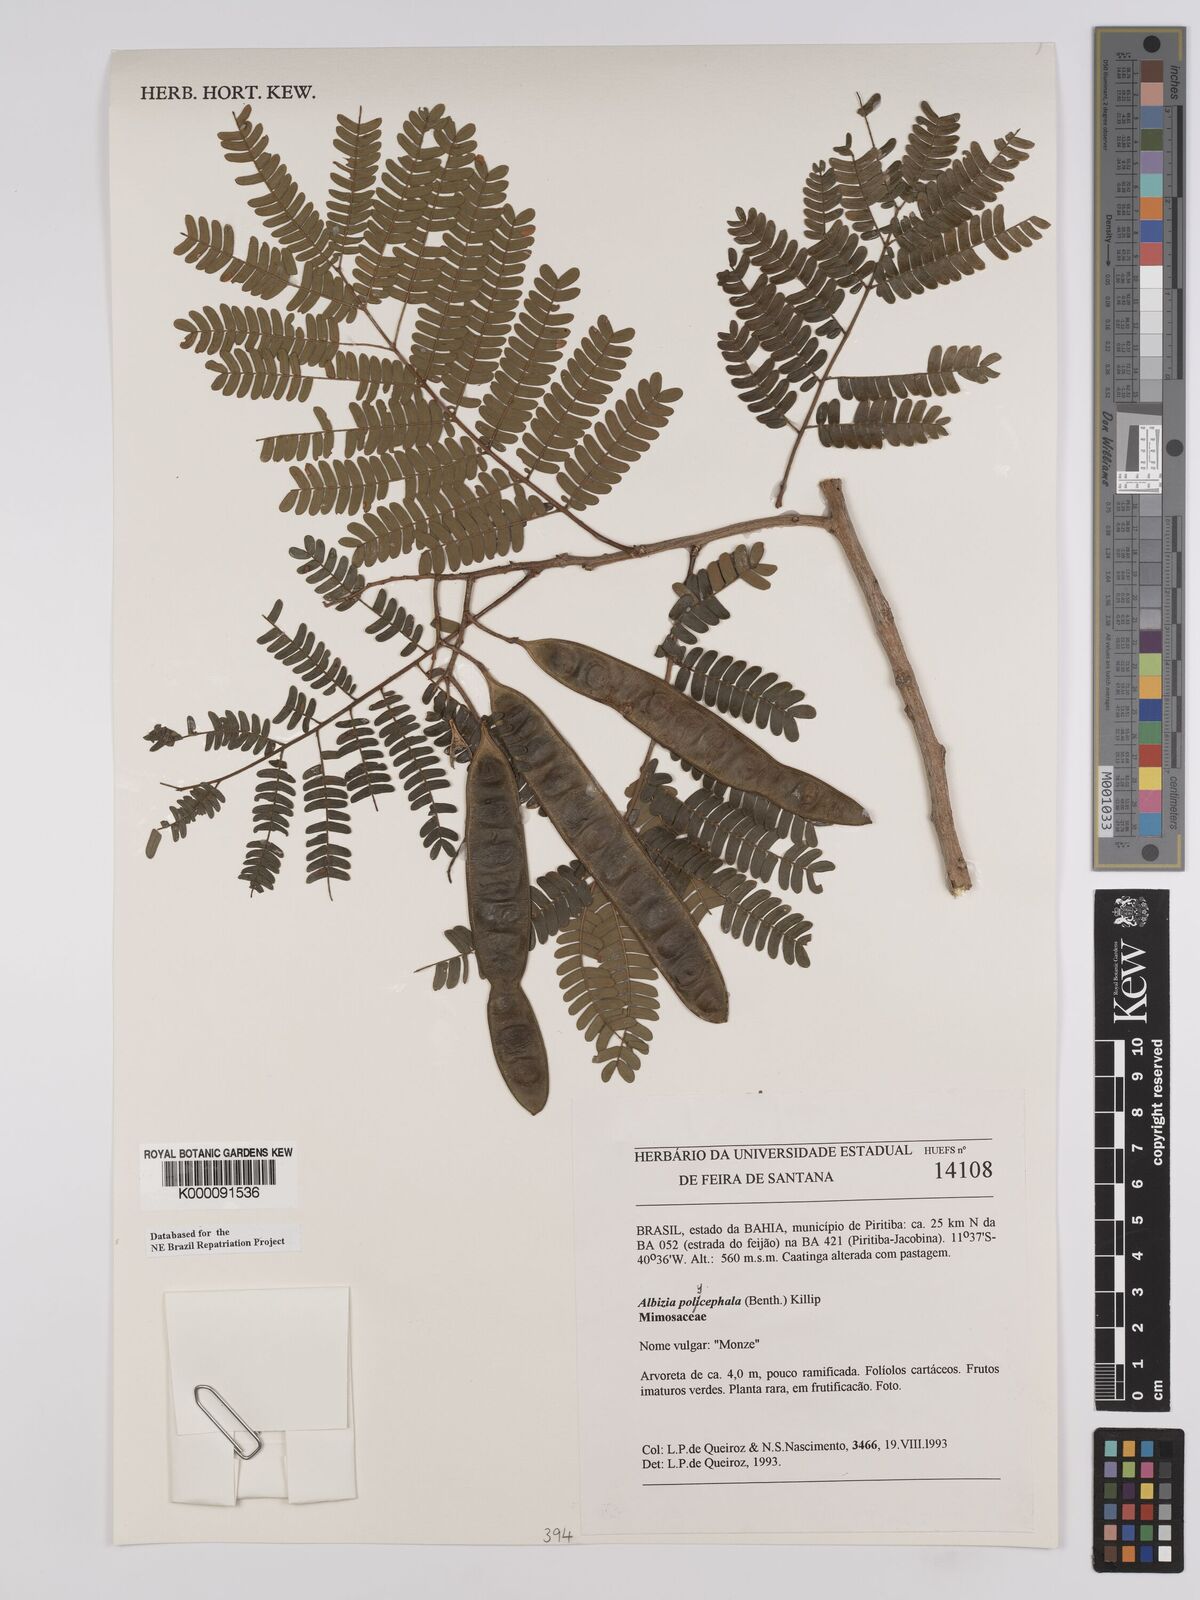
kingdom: Plantae
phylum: Tracheophyta
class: Magnoliopsida
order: Fabales
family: Fabaceae
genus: Albizia
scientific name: Albizia polycephala
